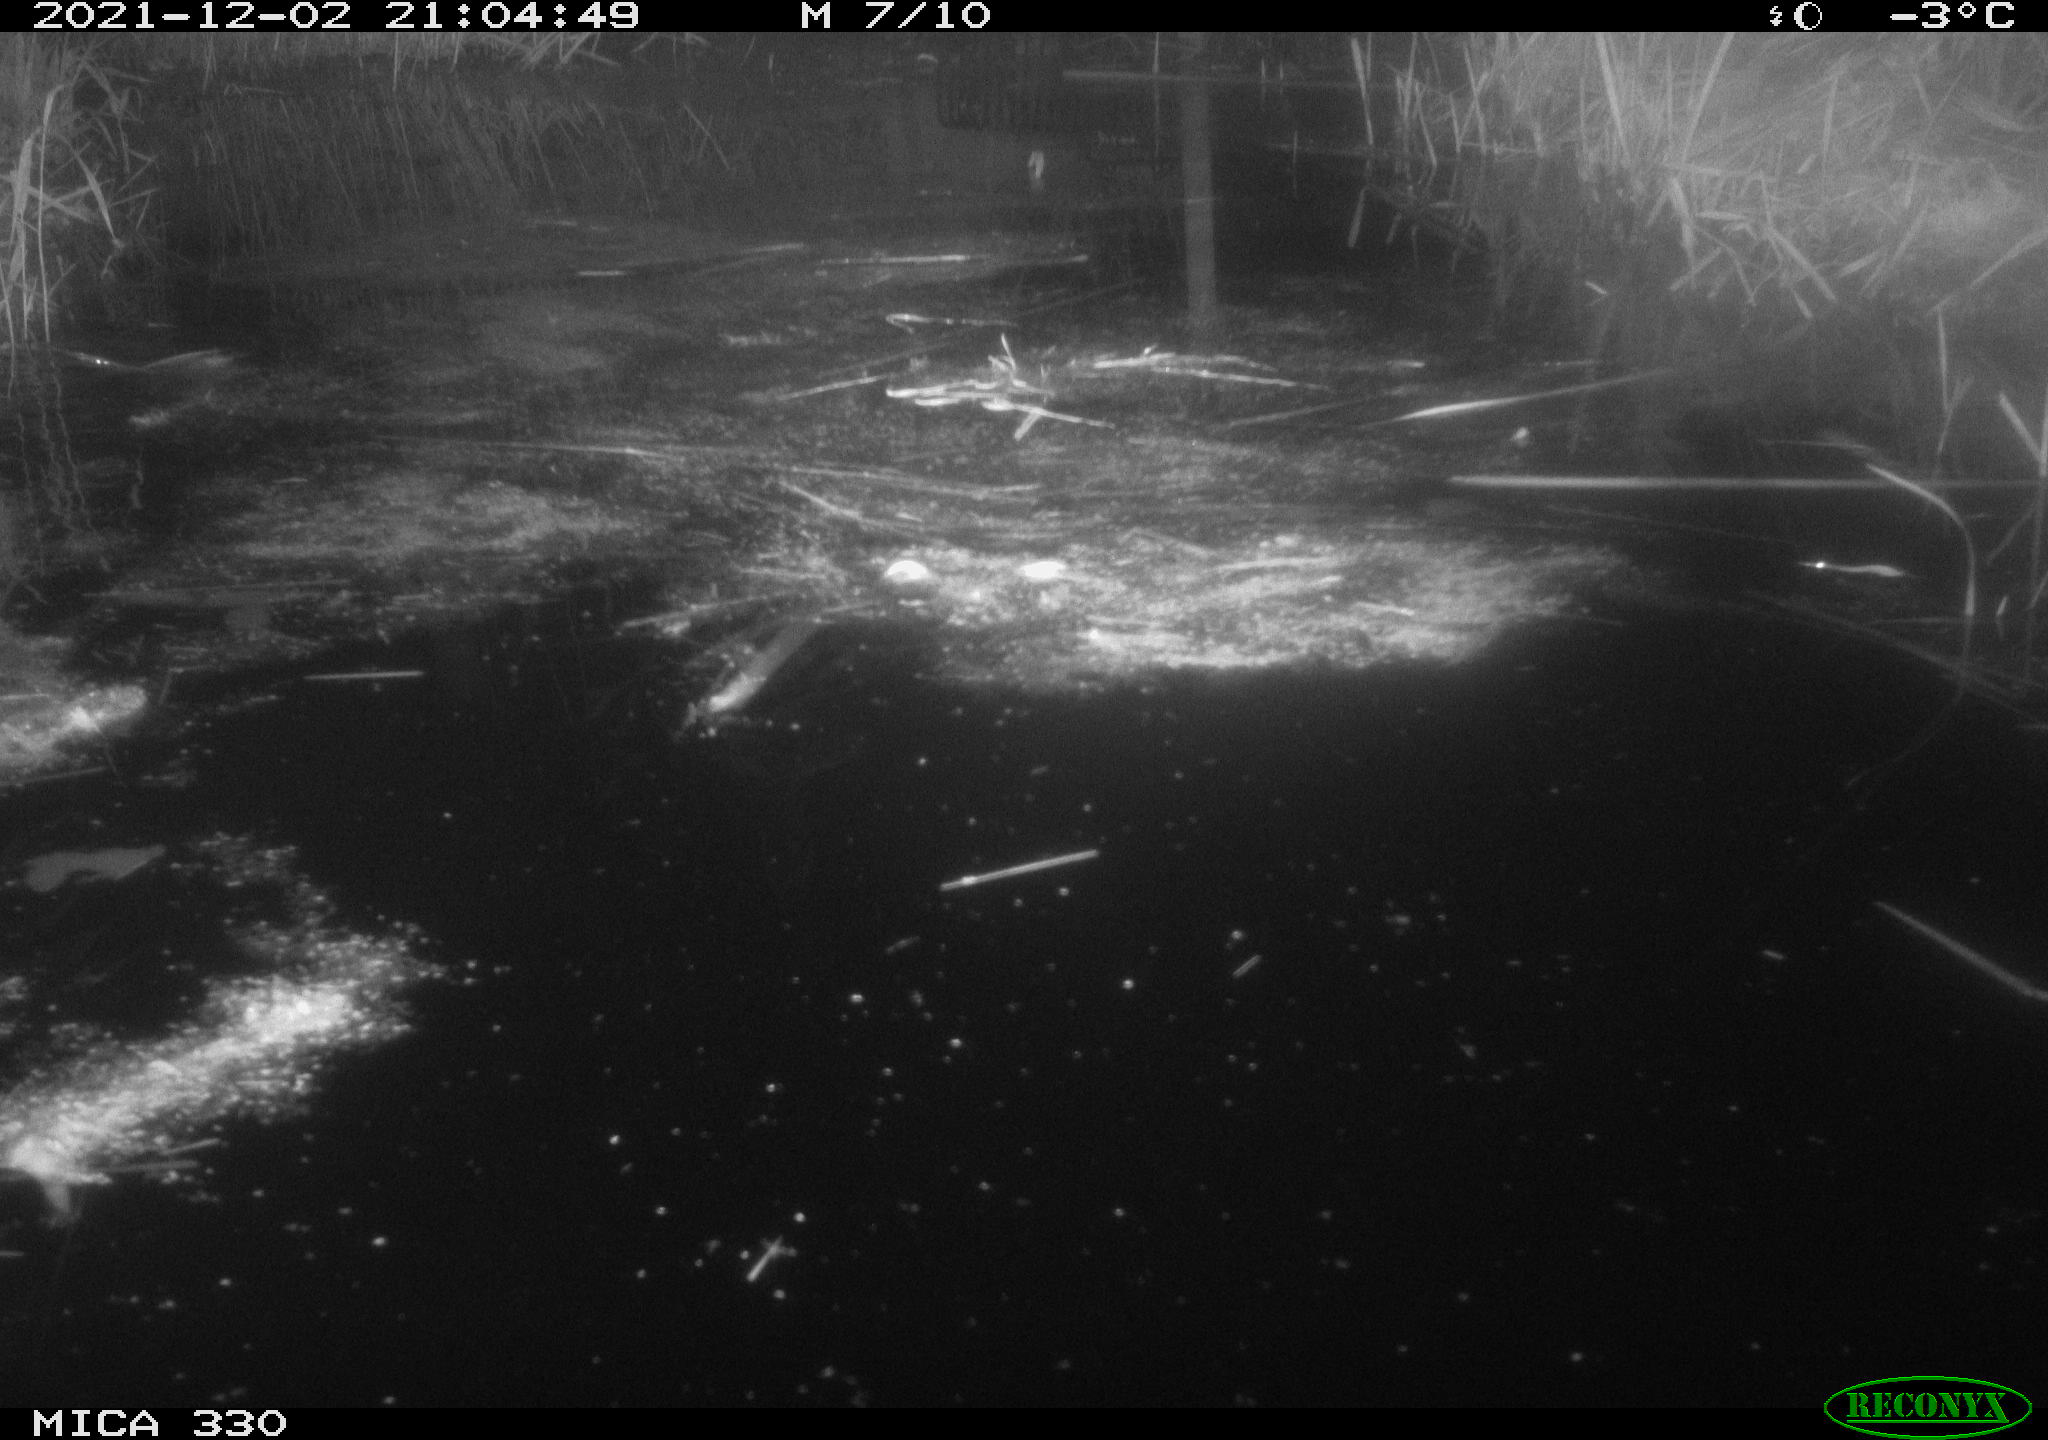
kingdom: Animalia
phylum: Chordata
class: Mammalia
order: Rodentia
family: Muridae
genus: Rattus
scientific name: Rattus norvegicus
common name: Brown rat
